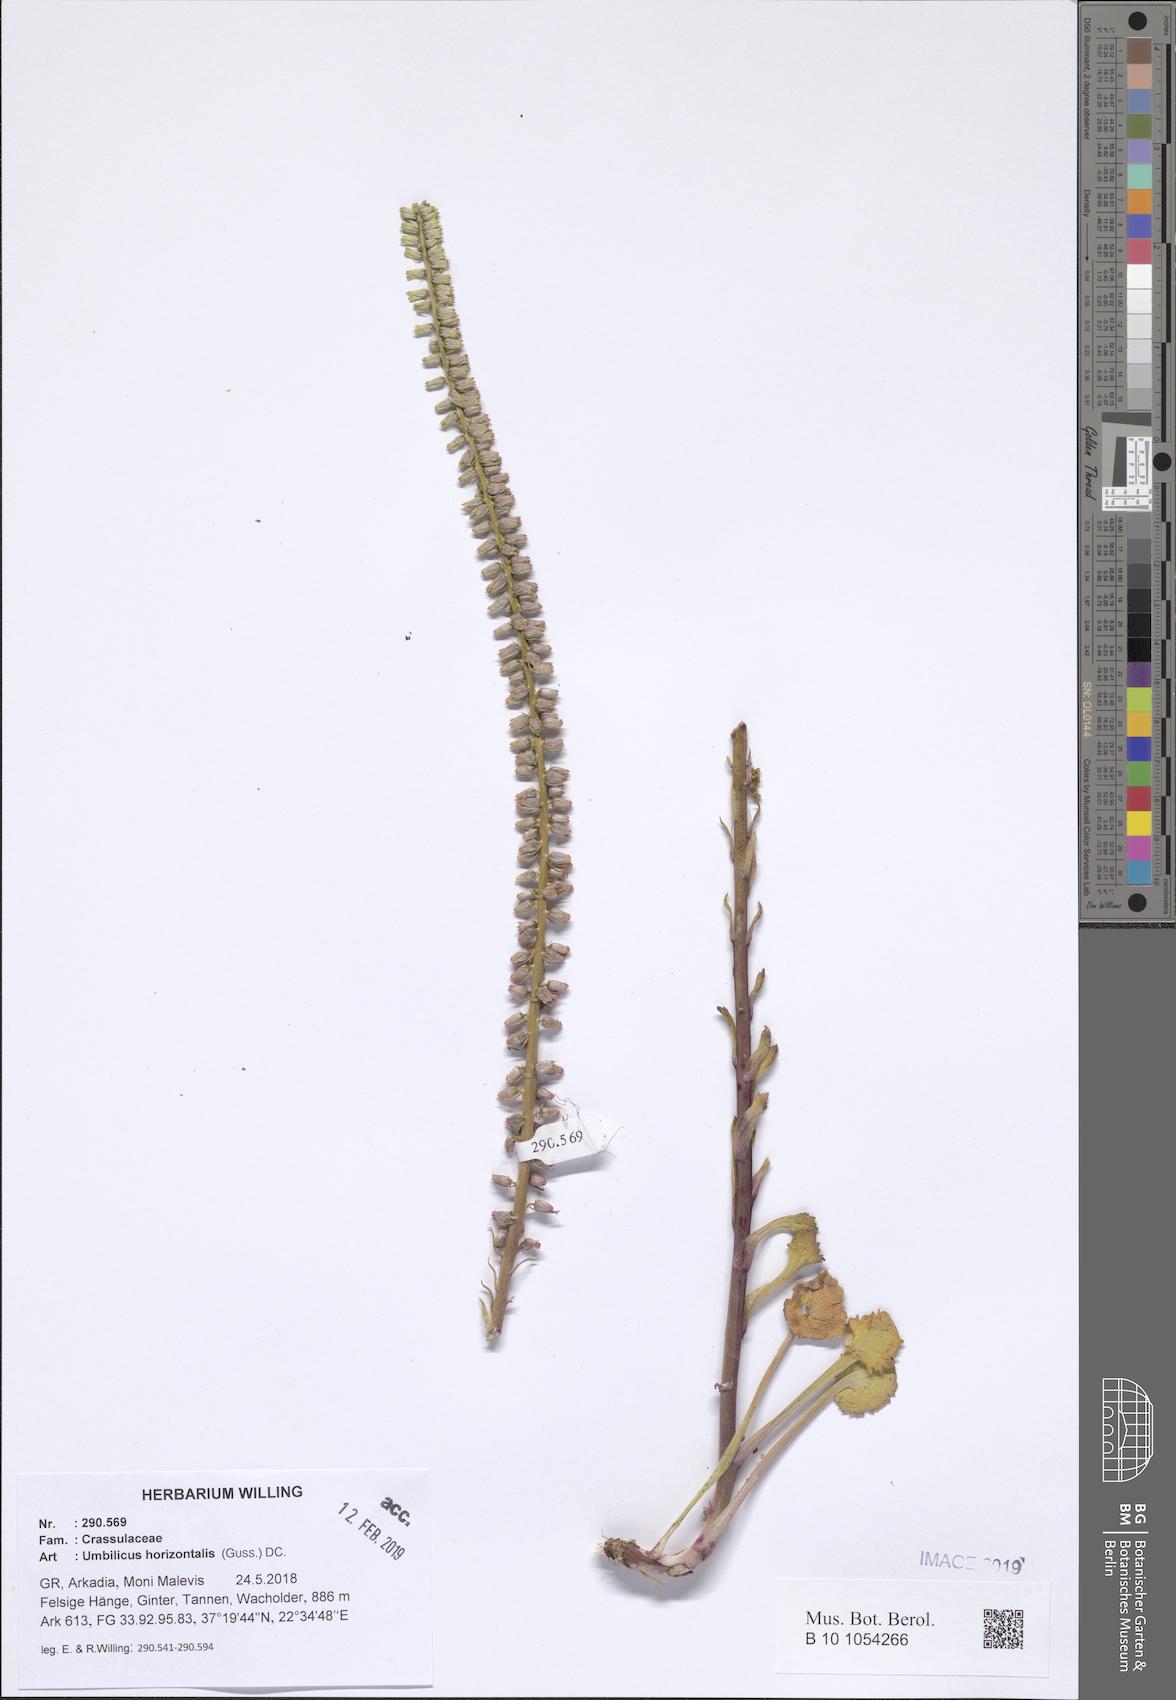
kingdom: Plantae
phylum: Tracheophyta
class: Magnoliopsida
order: Saxifragales
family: Crassulaceae
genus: Umbilicus
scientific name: Umbilicus horizontalis
